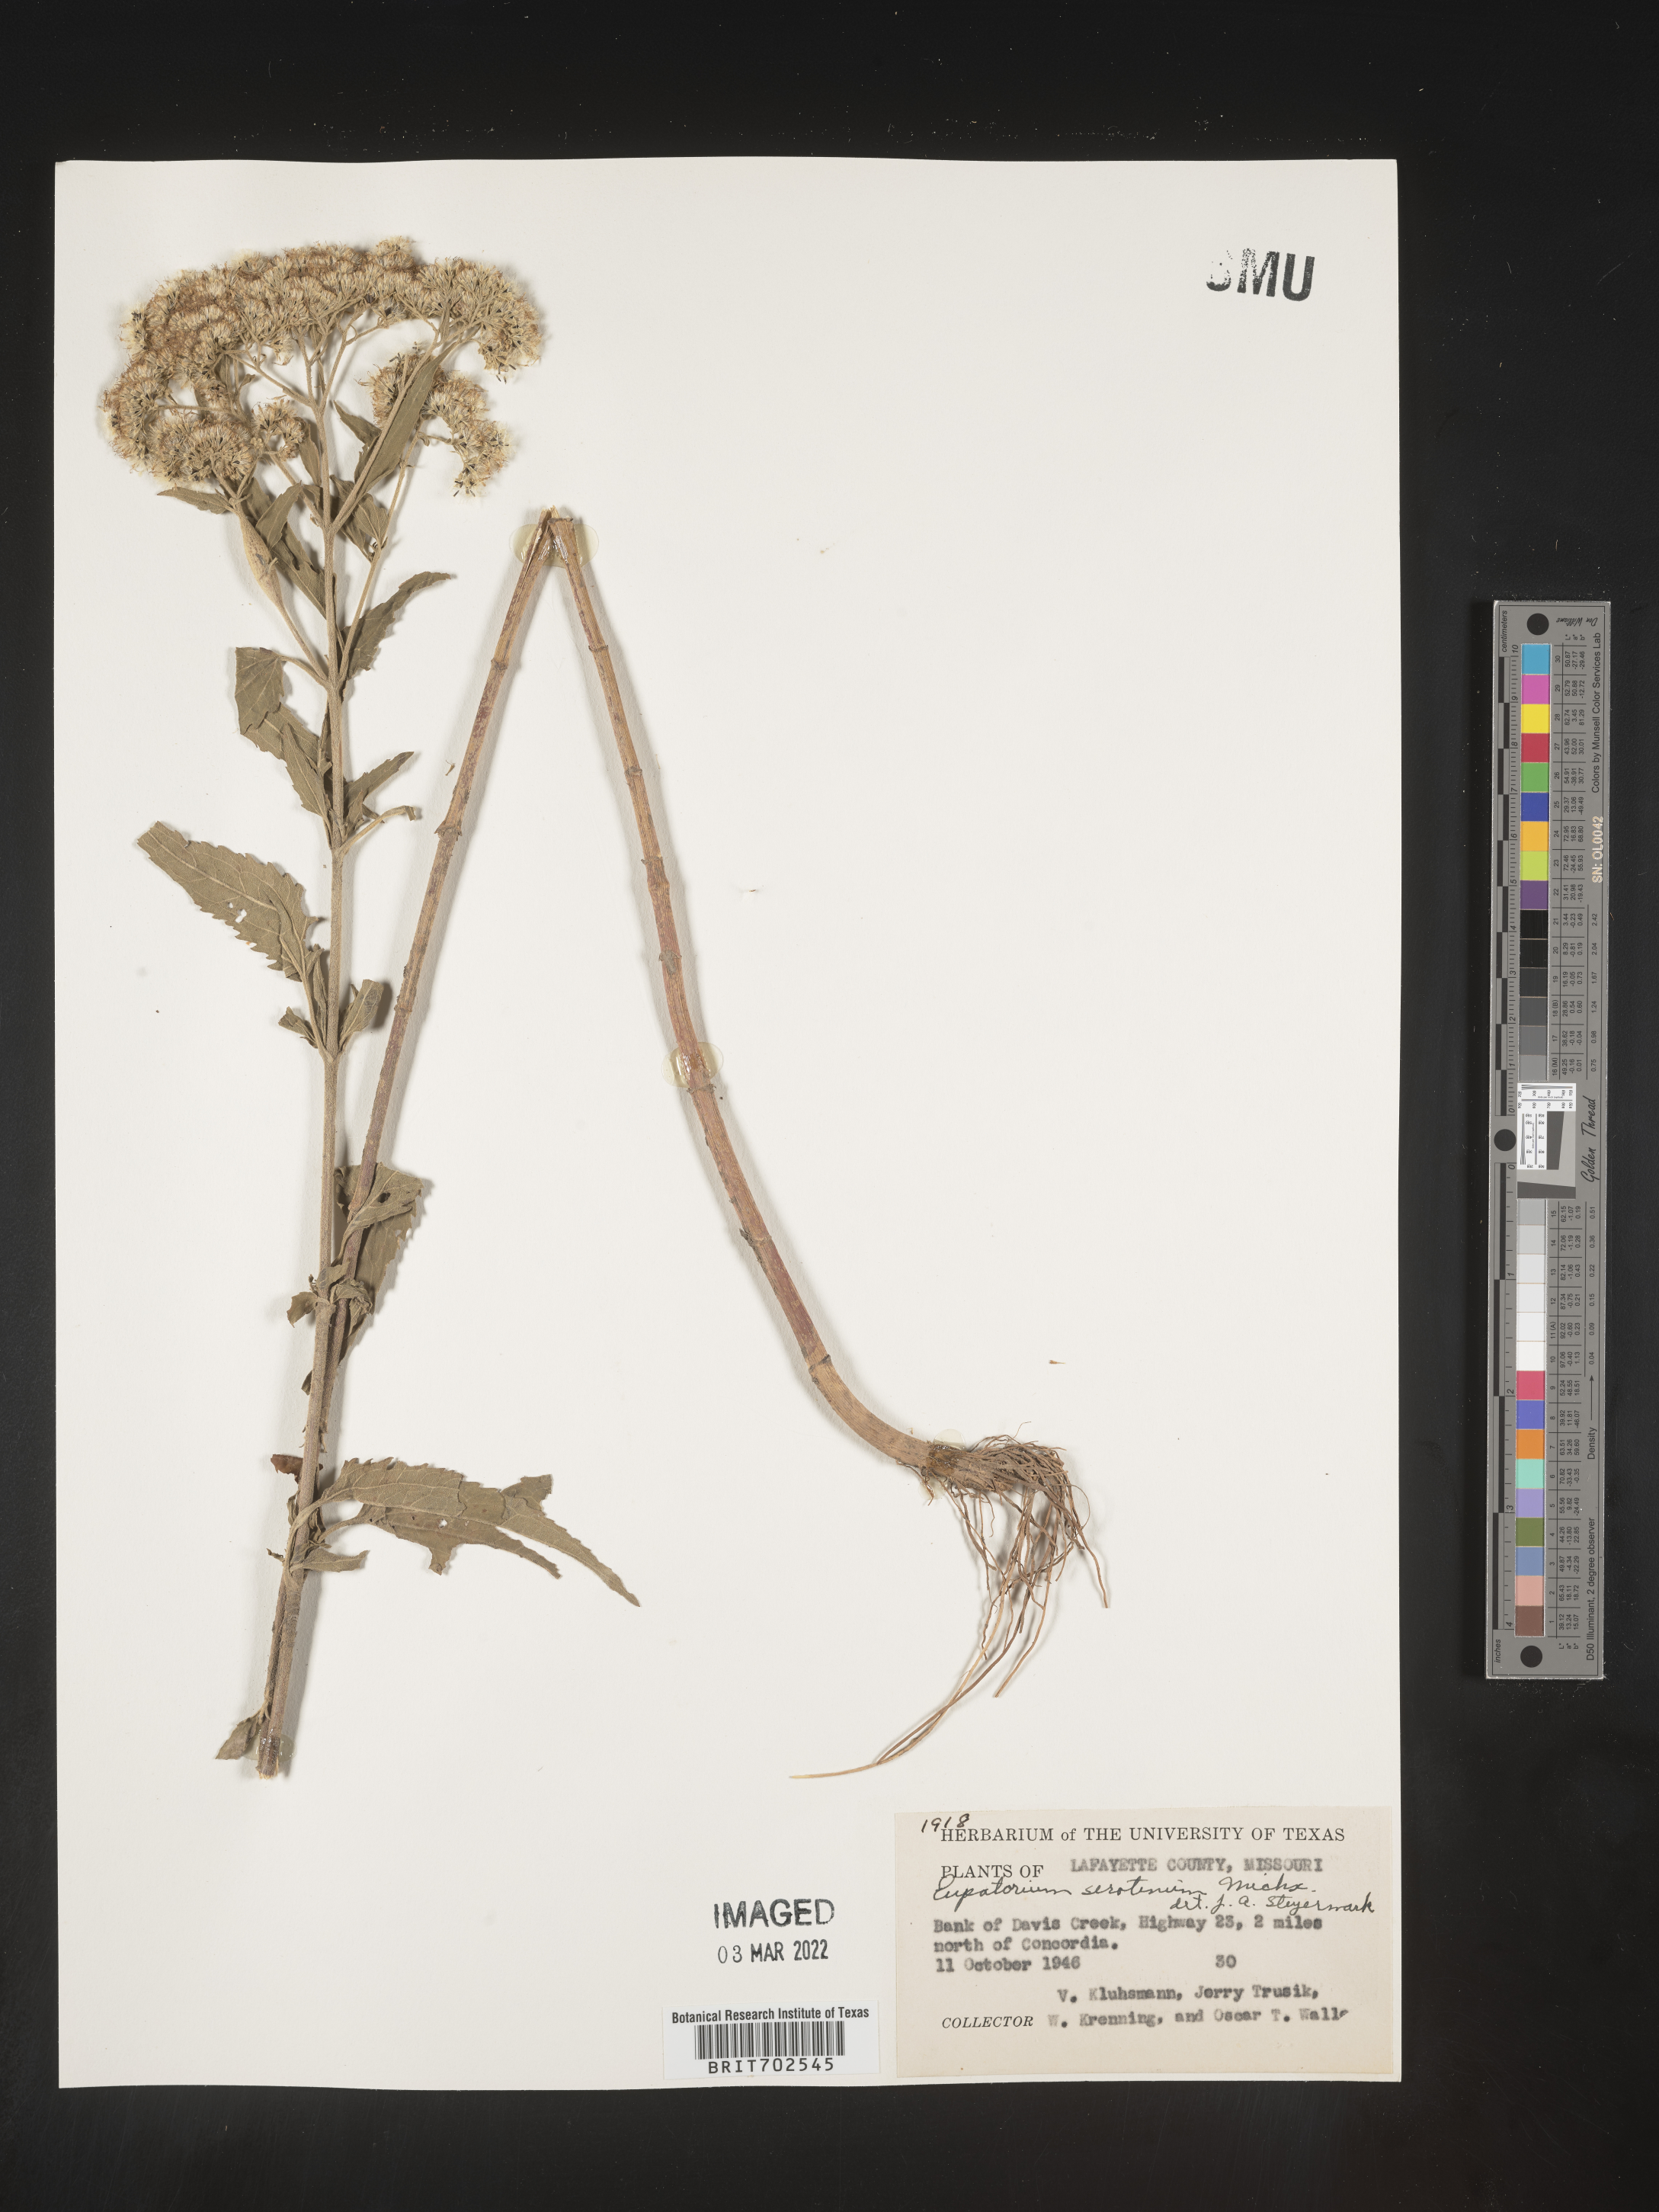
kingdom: Plantae
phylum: Tracheophyta
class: Magnoliopsida
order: Asterales
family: Asteraceae
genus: Eupatorium
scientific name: Eupatorium serotinum
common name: Late boneset
